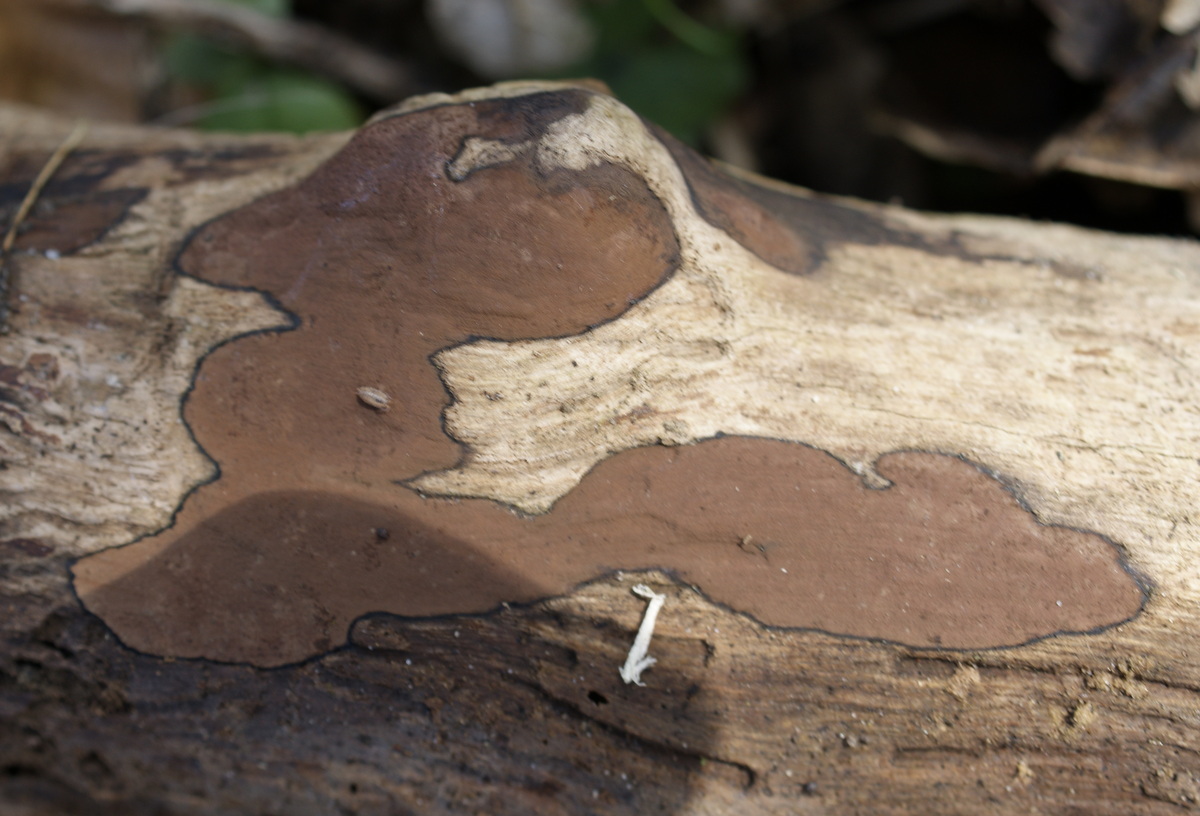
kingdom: Fungi
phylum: Ascomycota
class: Sordariomycetes
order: Xylariales
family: Hypoxylaceae
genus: Hypoxylon
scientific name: Hypoxylon petriniae
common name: nedsænket kulbær
